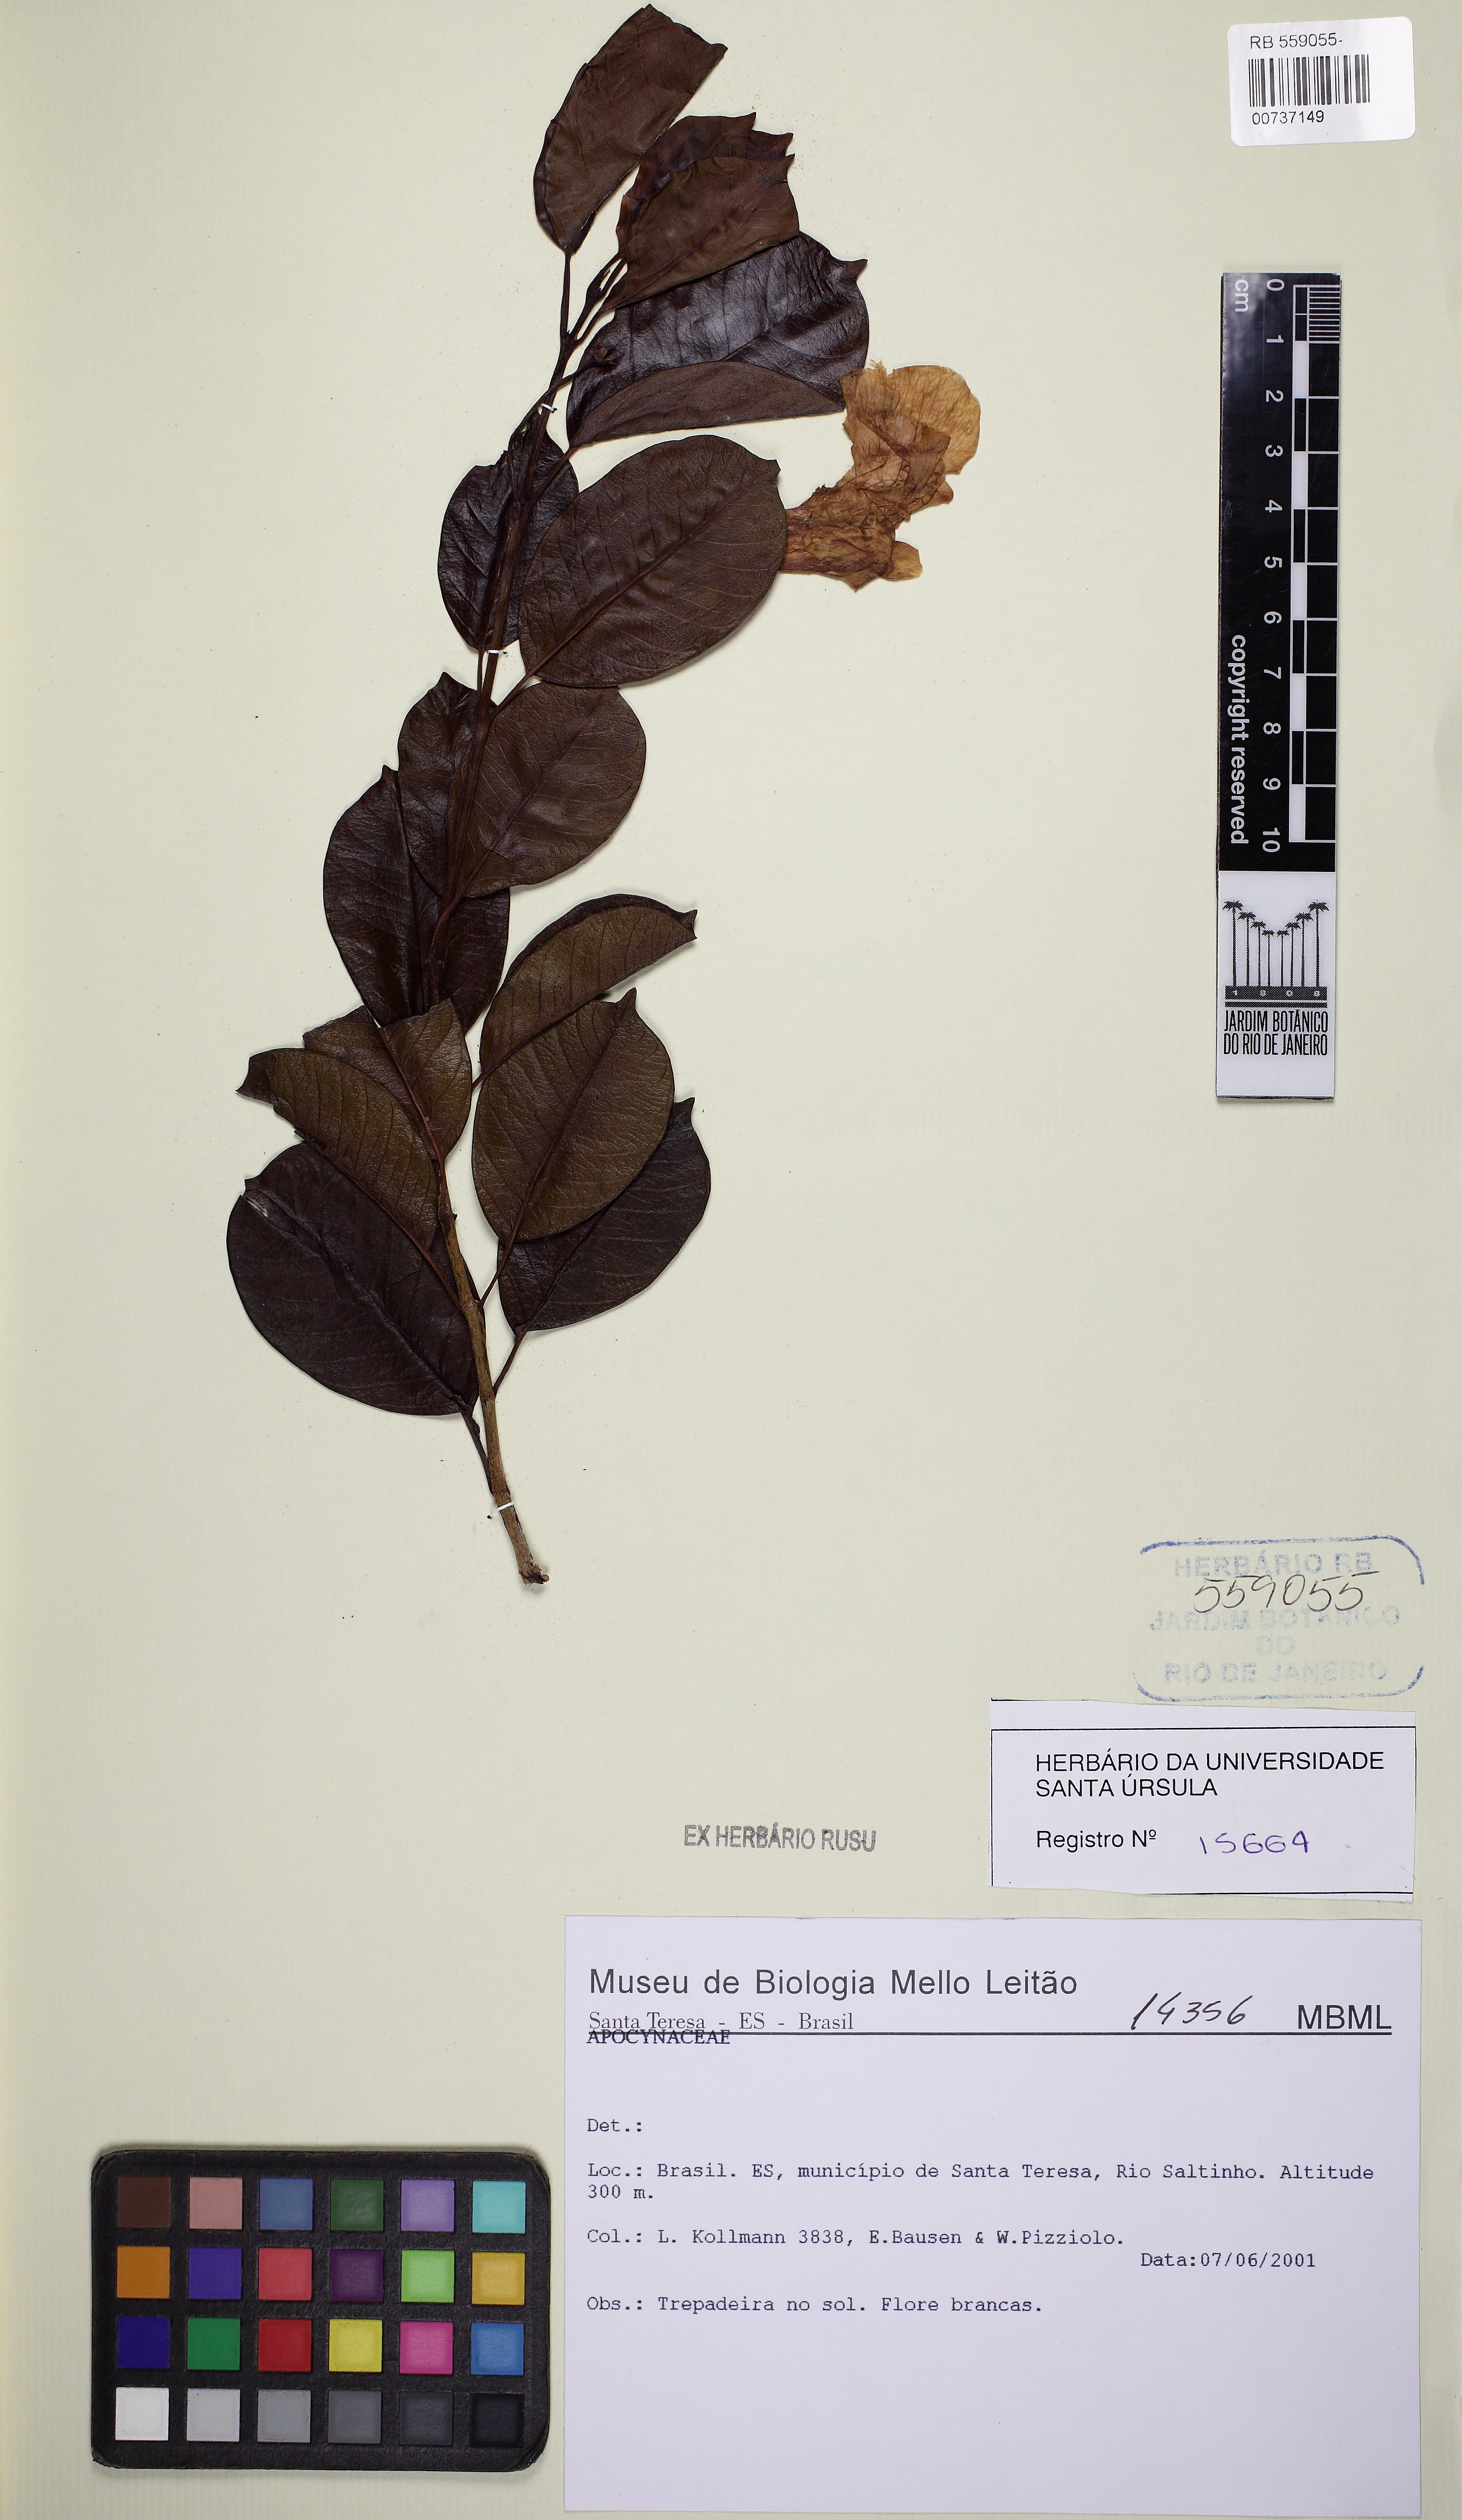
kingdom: Plantae
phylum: Tracheophyta
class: Magnoliopsida
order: Gentianales
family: Apocynaceae
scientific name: Apocynaceae
